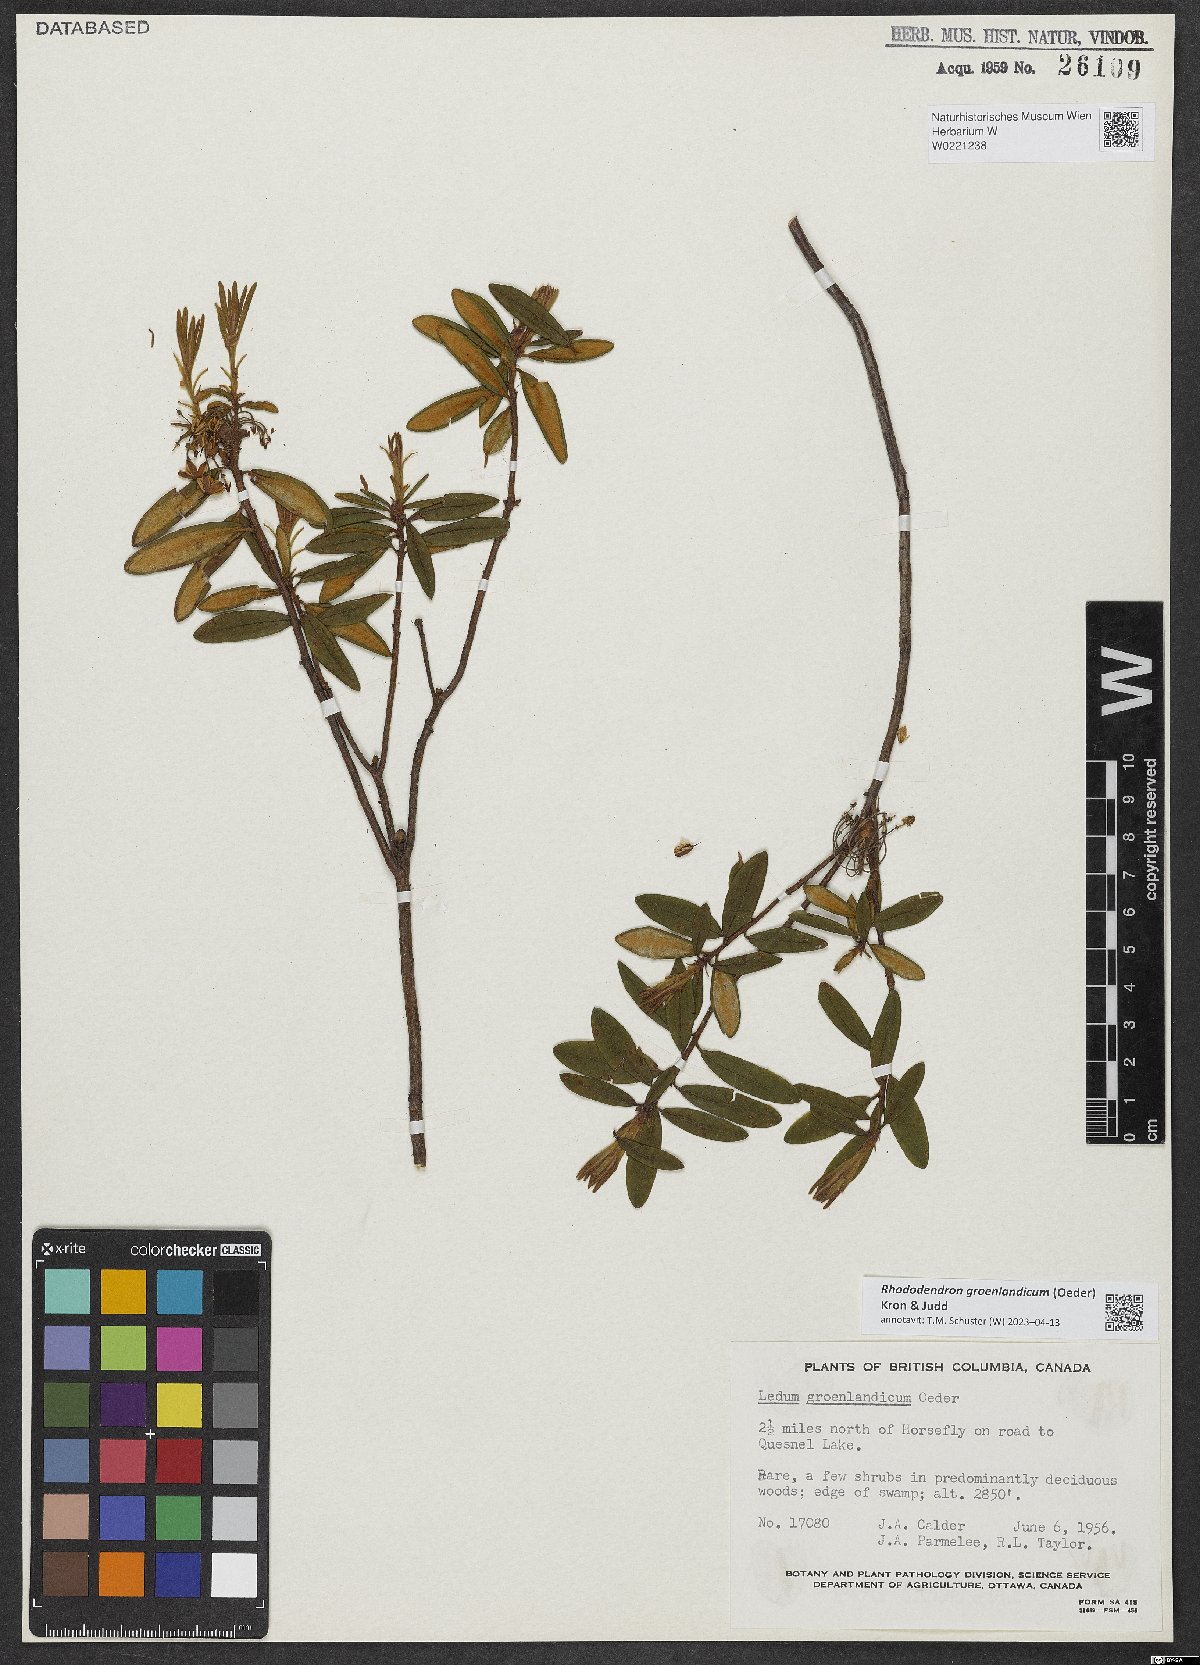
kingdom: Plantae
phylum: Tracheophyta
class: Magnoliopsida
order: Ericales
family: Ericaceae
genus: Rhododendron
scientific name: Rhododendron groenlandicum
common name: Bog labrador tea
